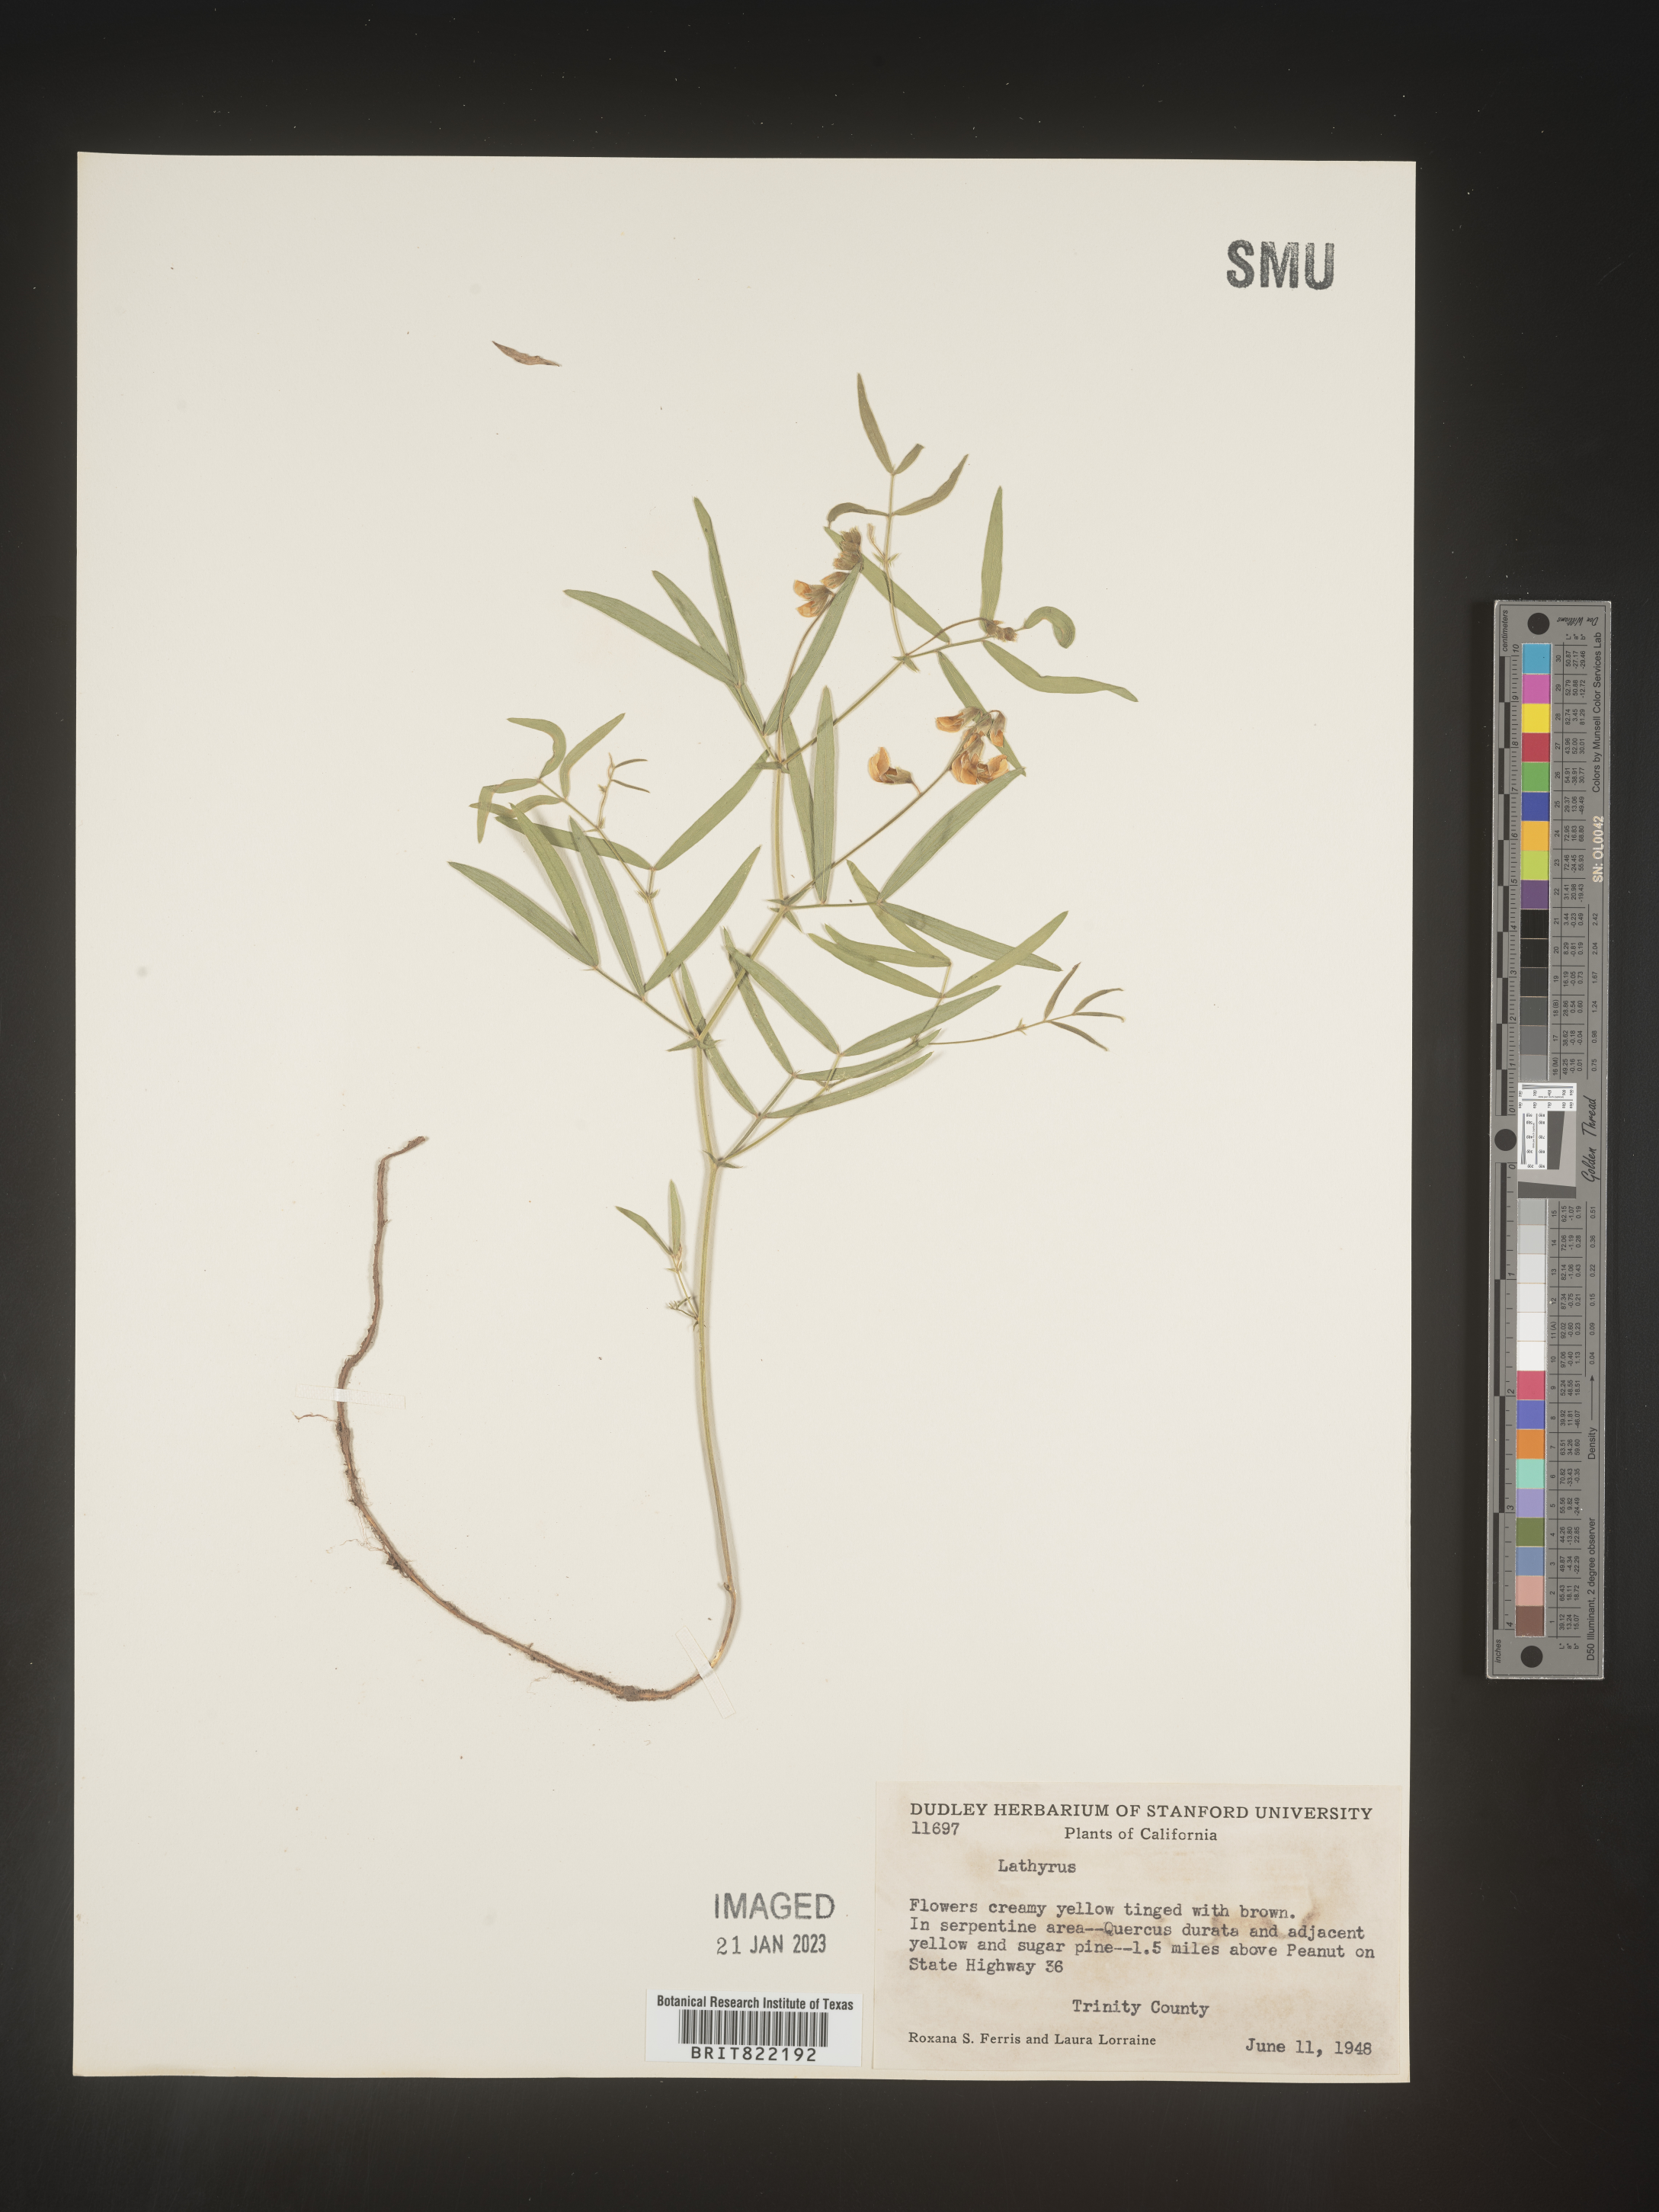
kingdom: Plantae
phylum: Tracheophyta
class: Magnoliopsida
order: Fabales
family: Fabaceae
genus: Lathyrus
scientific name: Lathyrus
